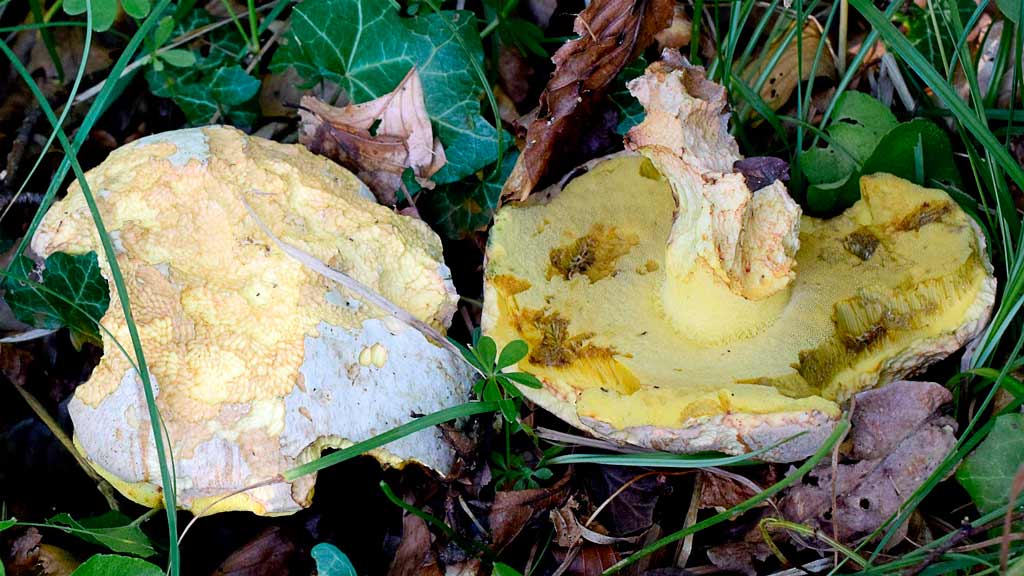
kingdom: Fungi
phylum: Basidiomycota
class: Agaricomycetes
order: Boletales
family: Boletaceae
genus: Butyriboletus
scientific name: Butyriboletus fechtneri
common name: sølvskinnende rørhat
